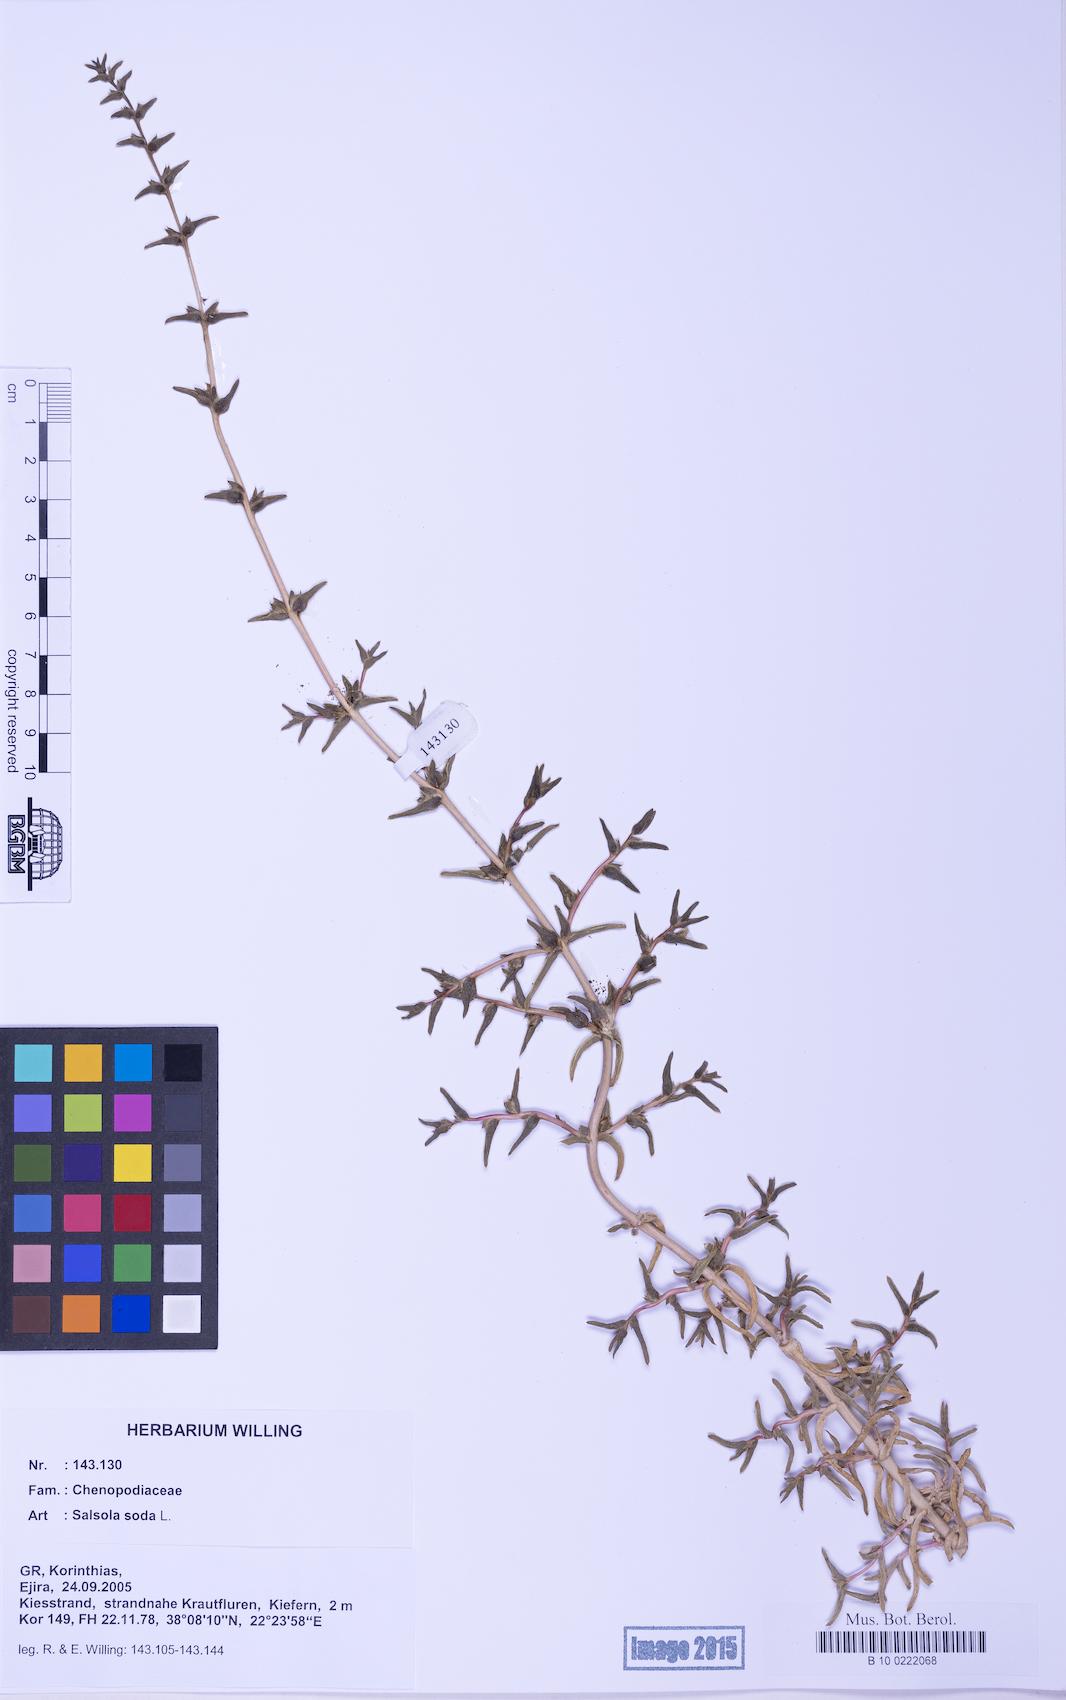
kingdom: Plantae
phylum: Tracheophyta
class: Magnoliopsida
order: Caryophyllales
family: Amaranthaceae
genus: Soda
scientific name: Soda inermis
